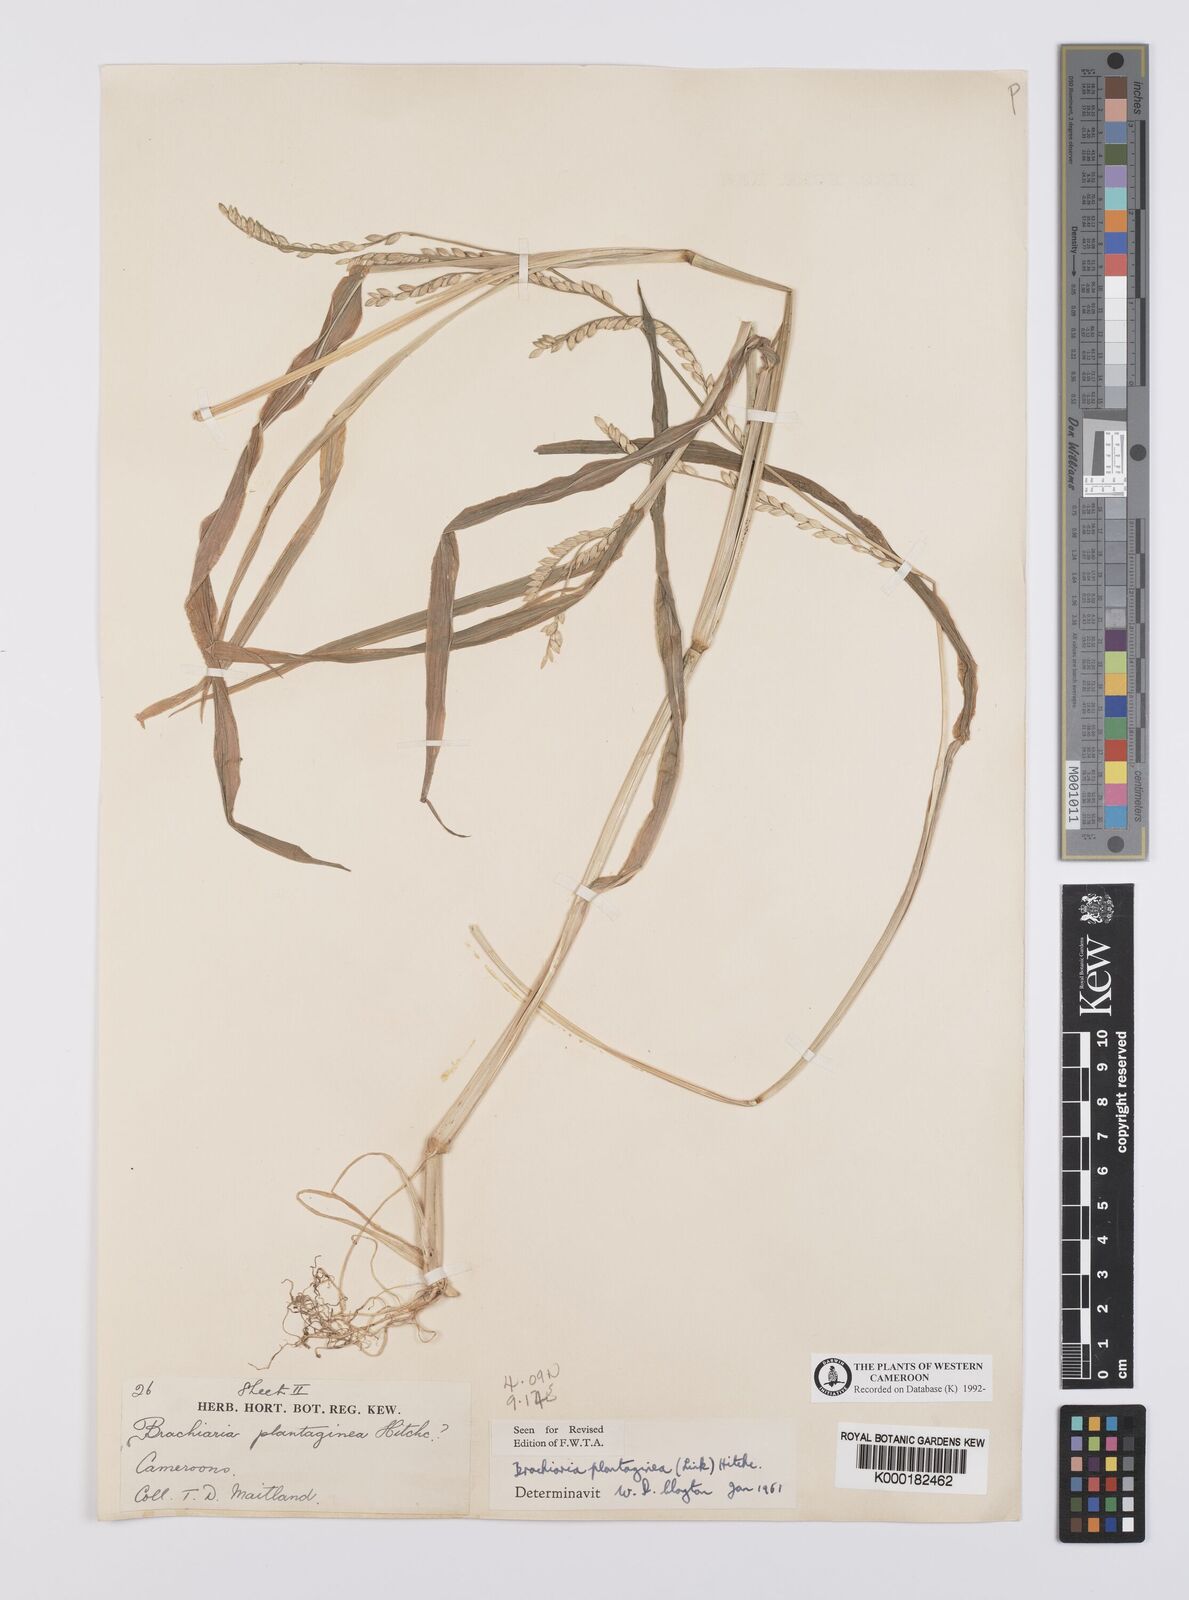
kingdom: Plantae
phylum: Tracheophyta
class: Liliopsida
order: Poales
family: Poaceae
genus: Urochloa
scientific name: Urochloa plantaginea
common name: Plantain signalgrass
